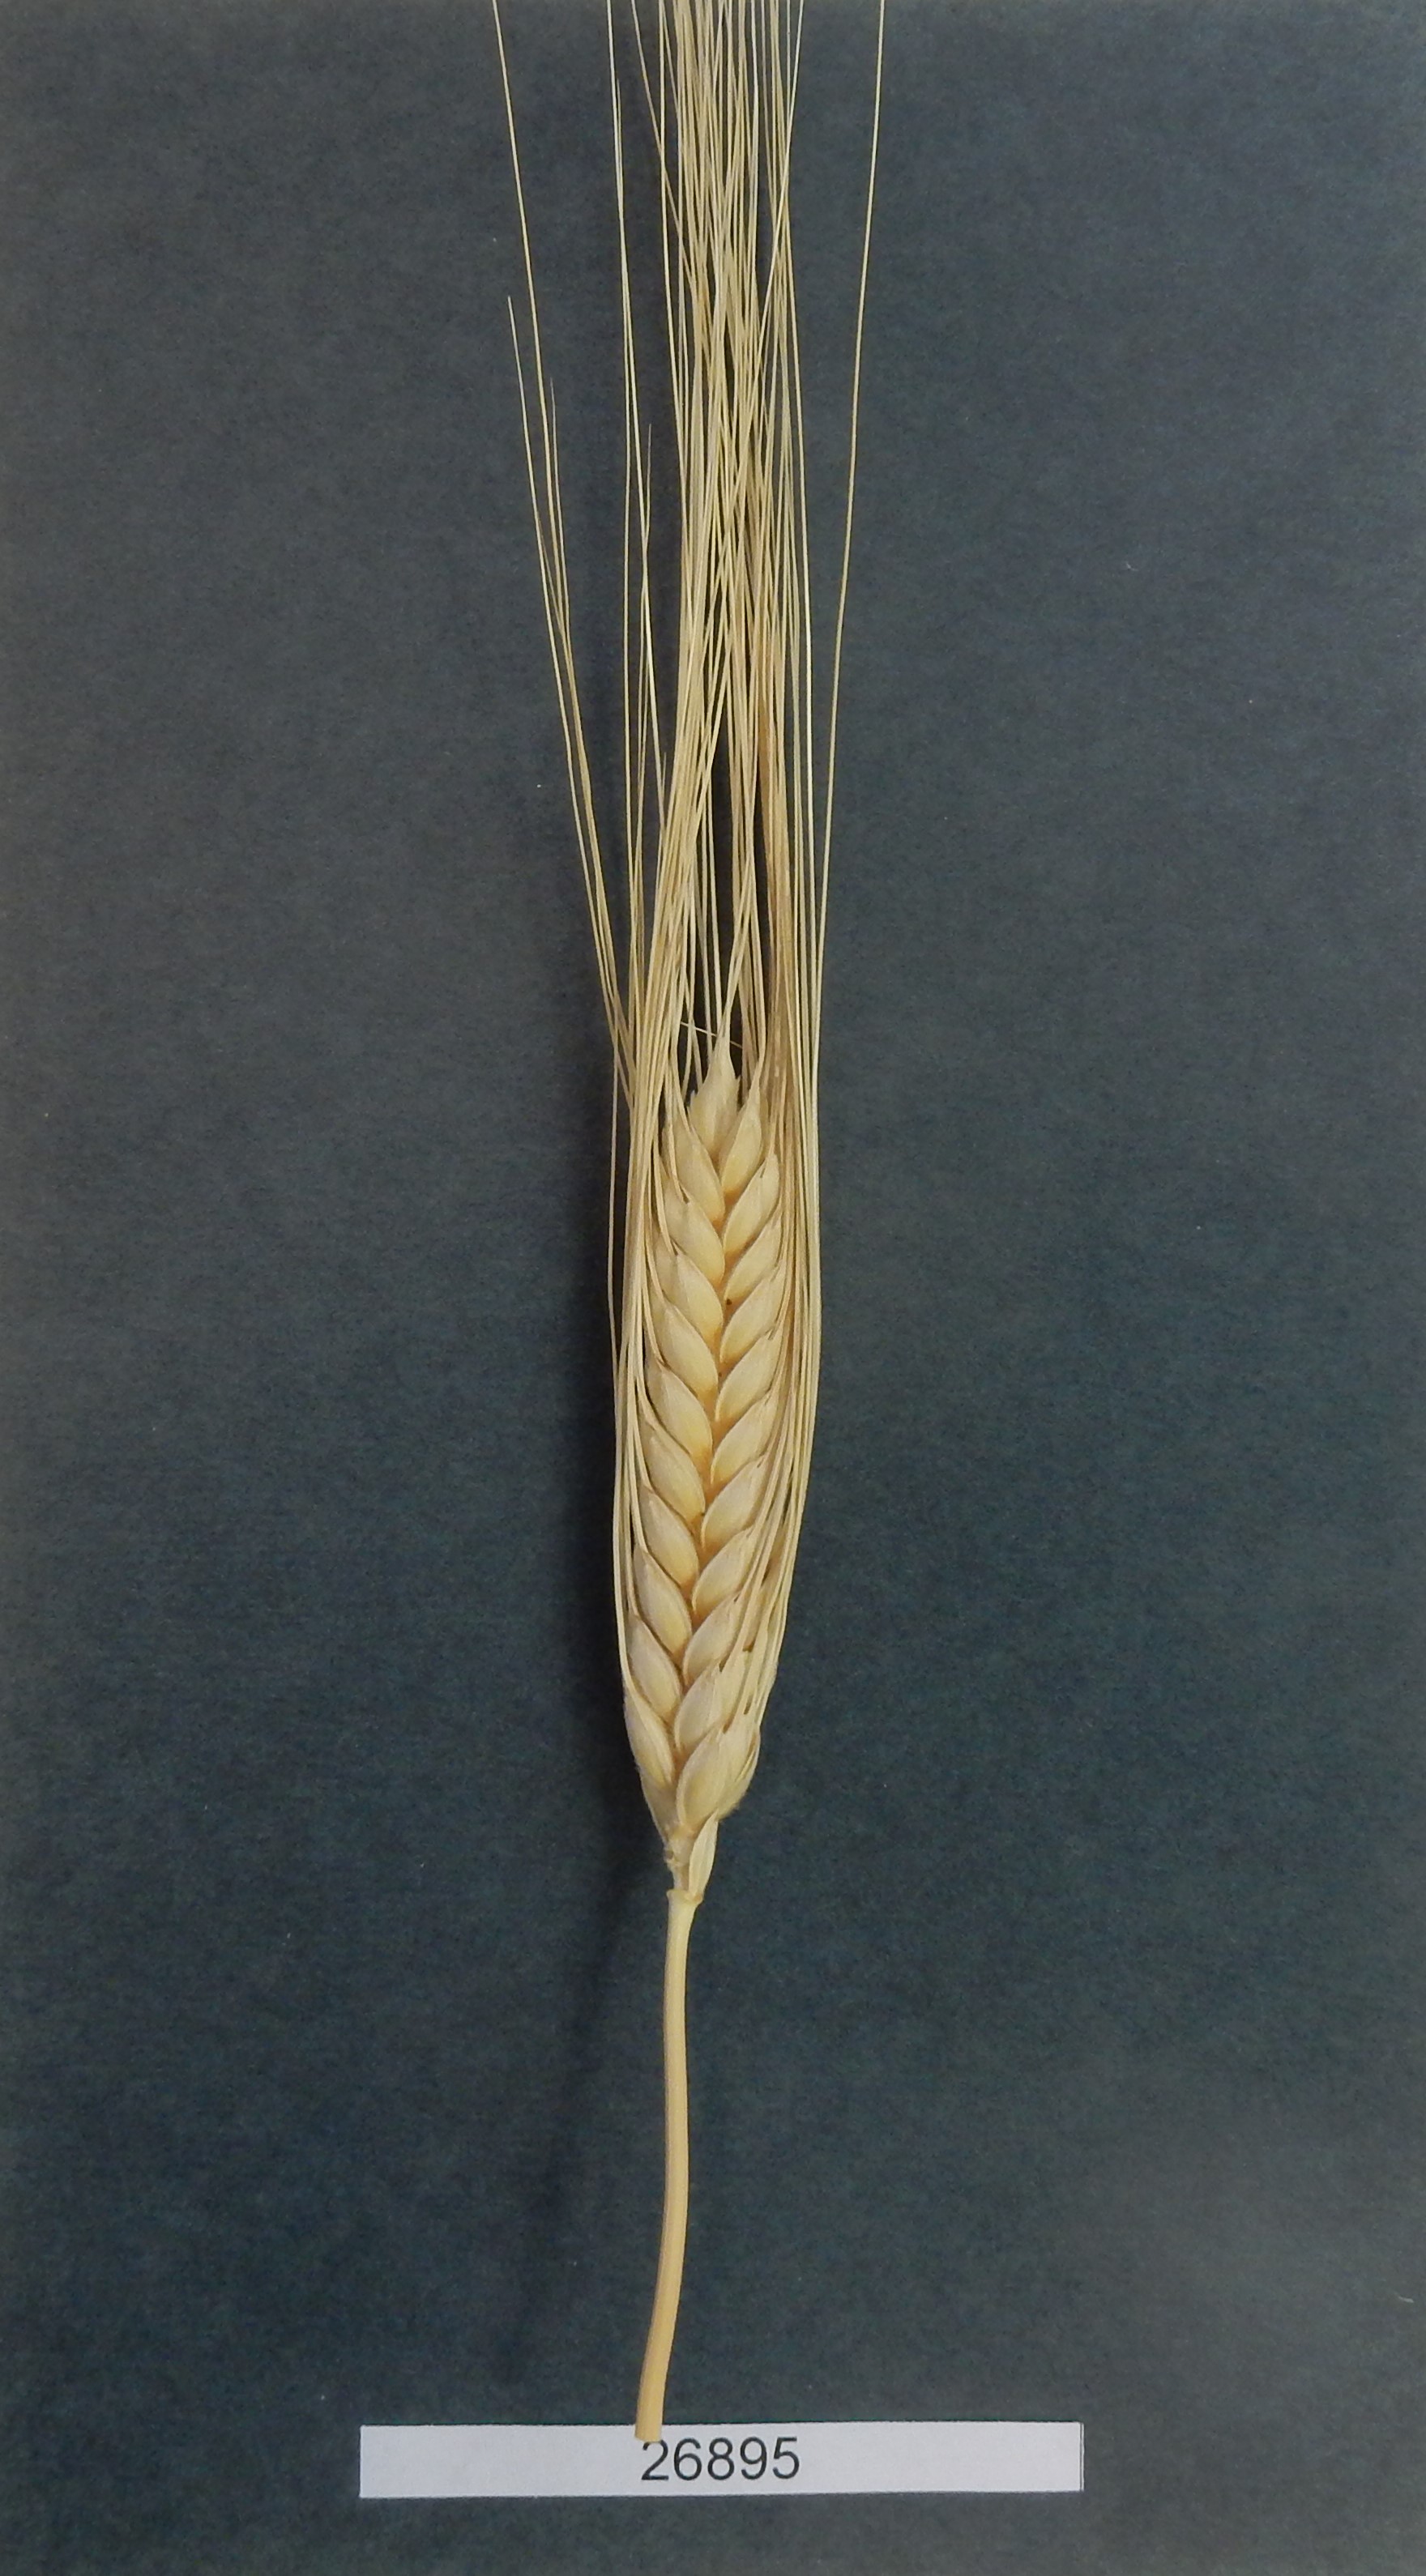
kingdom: Plantae
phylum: Tracheophyta
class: Liliopsida
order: Poales
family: Poaceae
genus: Triticum
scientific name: Triticum
